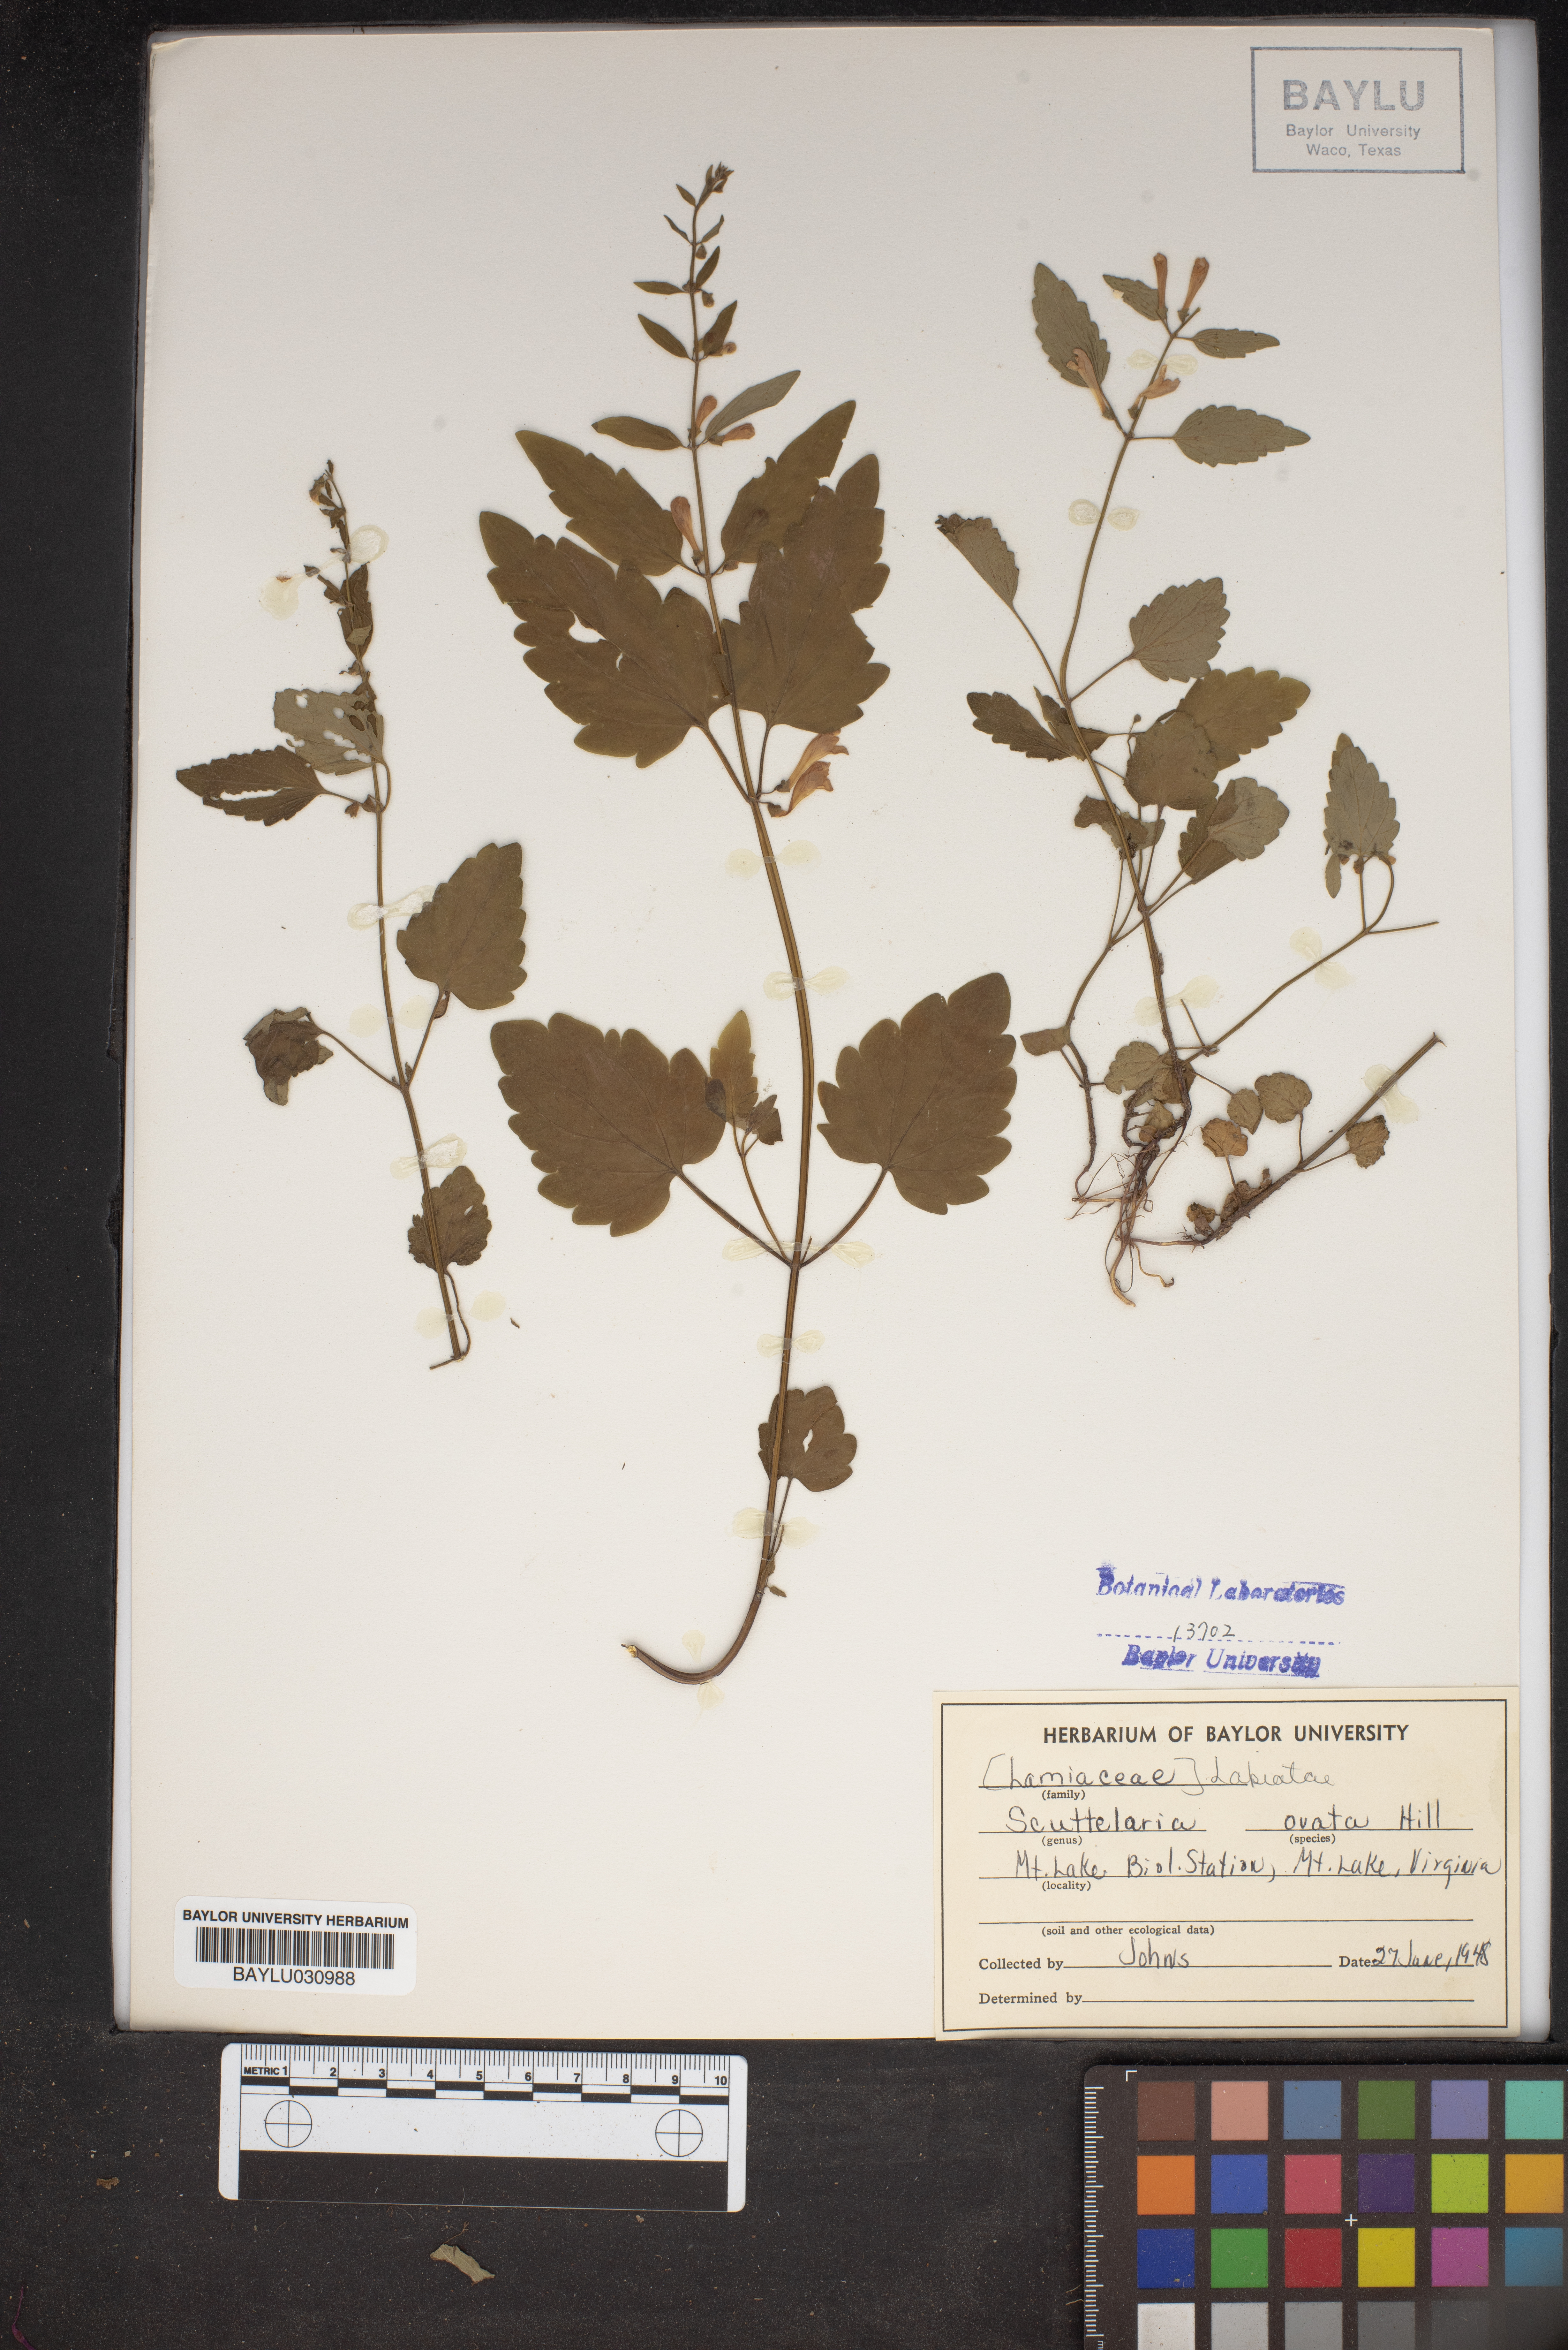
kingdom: Plantae
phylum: Tracheophyta
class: Magnoliopsida
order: Lamiales
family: Lamiaceae
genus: Scutellaria
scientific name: Scutellaria ovata
